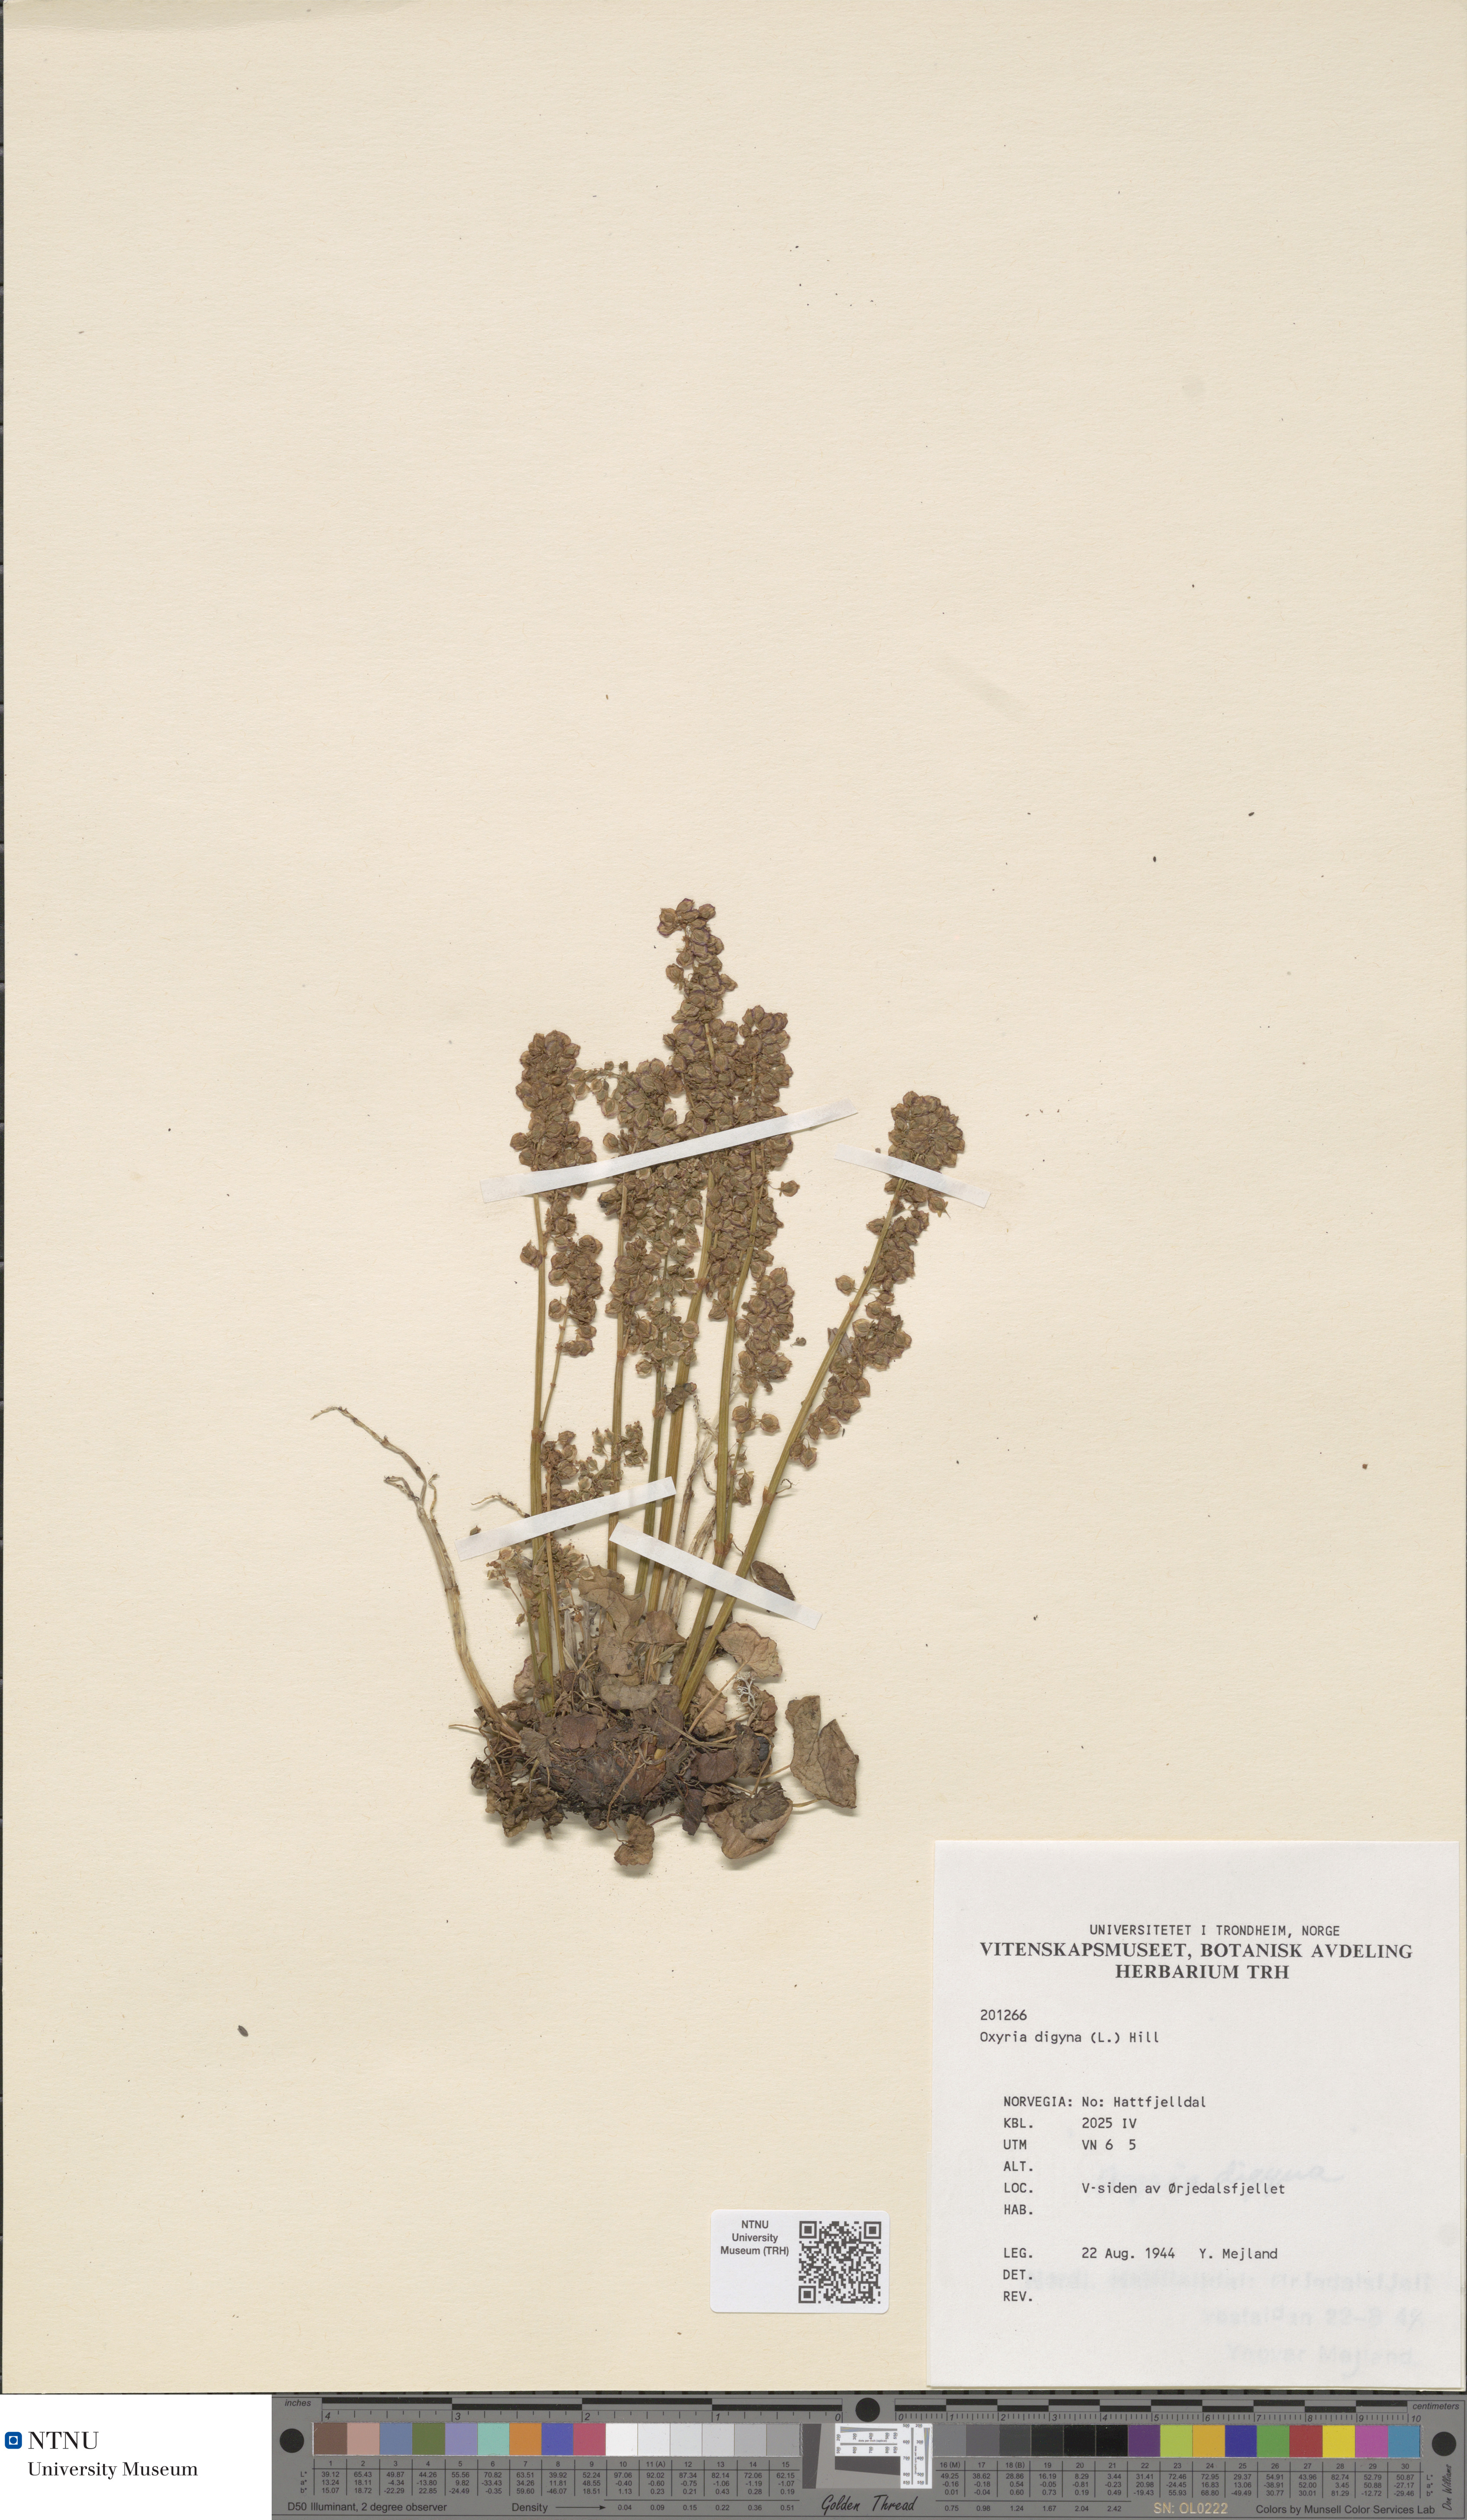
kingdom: Plantae
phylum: Tracheophyta
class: Magnoliopsida
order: Caryophyllales
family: Polygonaceae
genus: Oxyria
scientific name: Oxyria digyna
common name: Alpine mountain-sorrel
